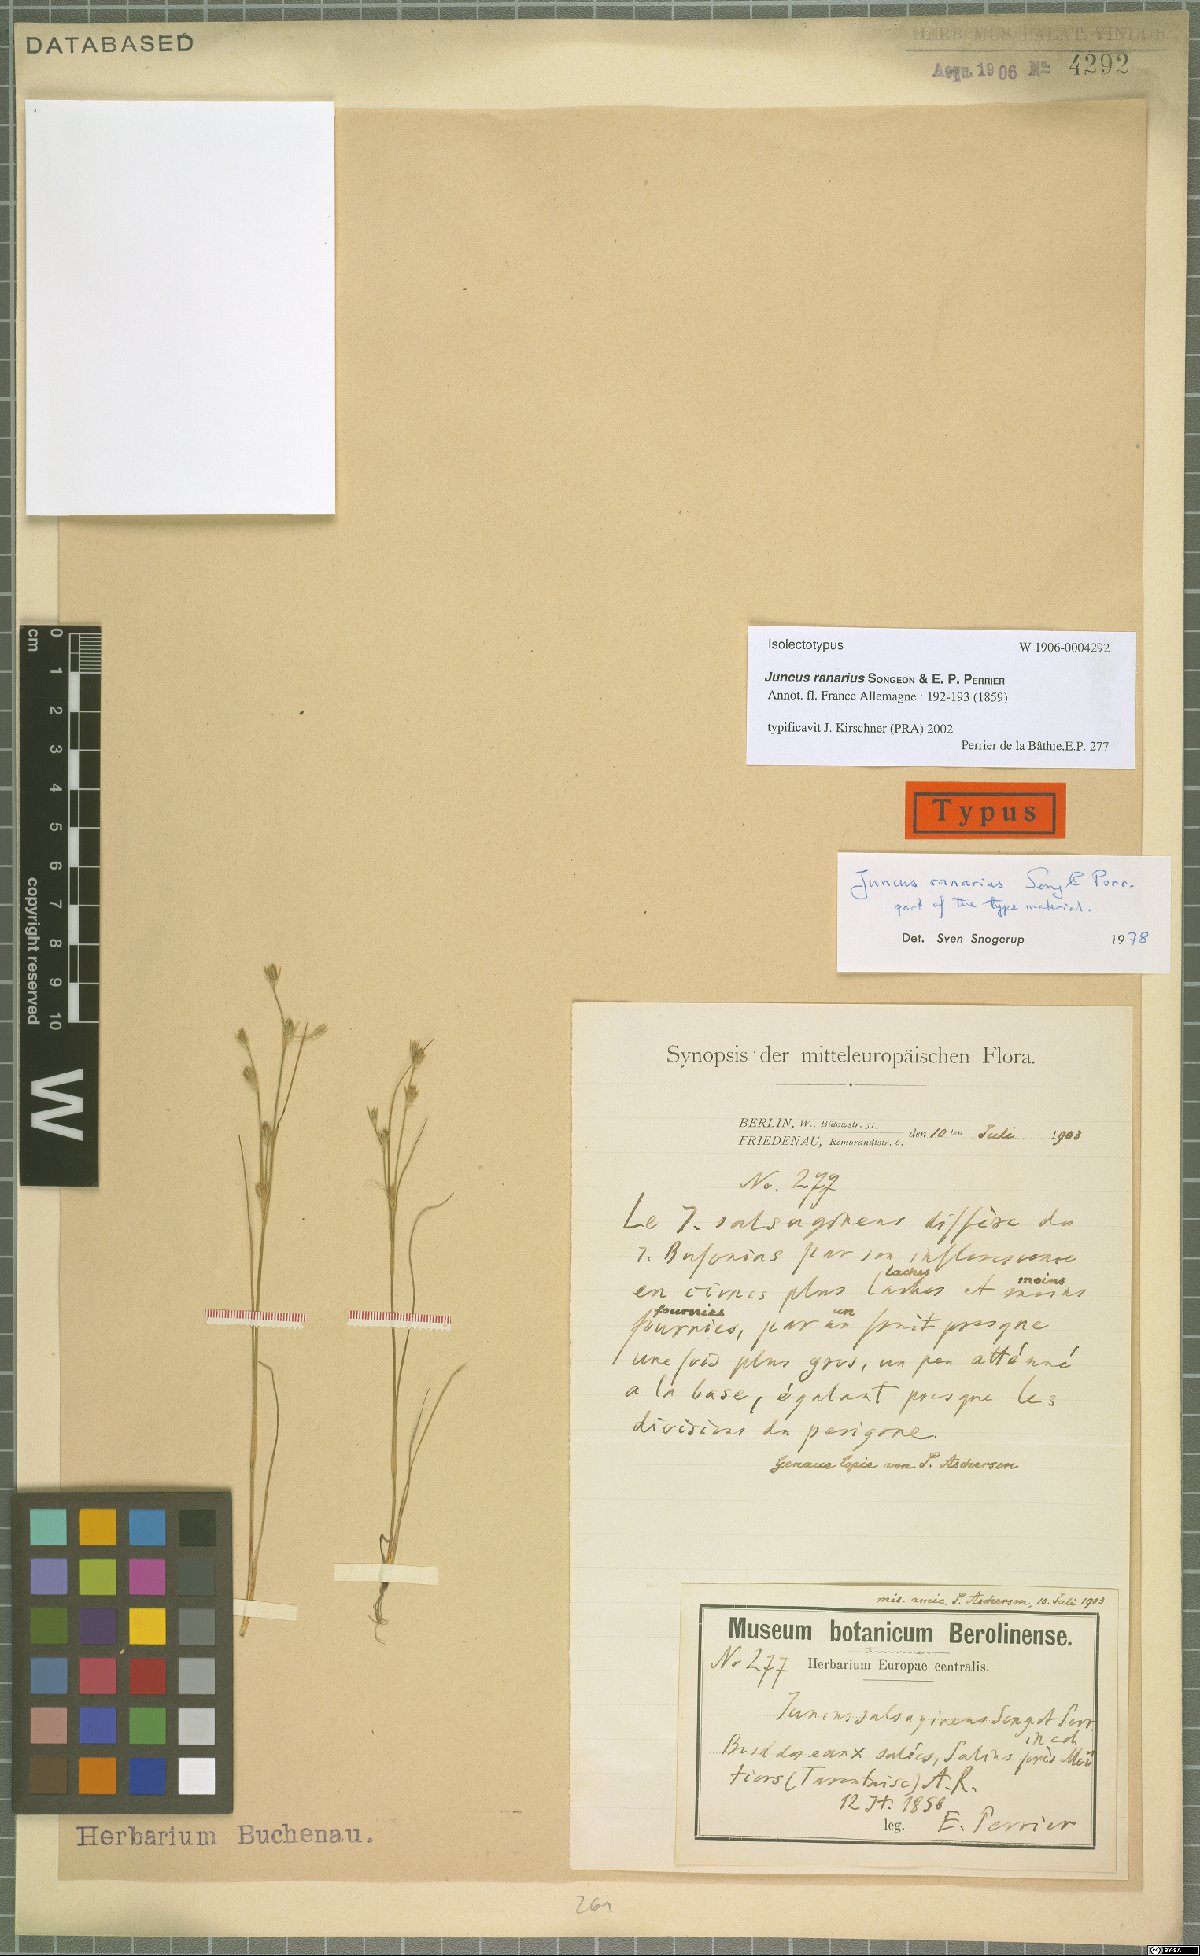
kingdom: Plantae
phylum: Tracheophyta
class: Liliopsida
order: Poales
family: Juncaceae
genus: Juncus
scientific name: Juncus ranarius
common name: Frog rush
